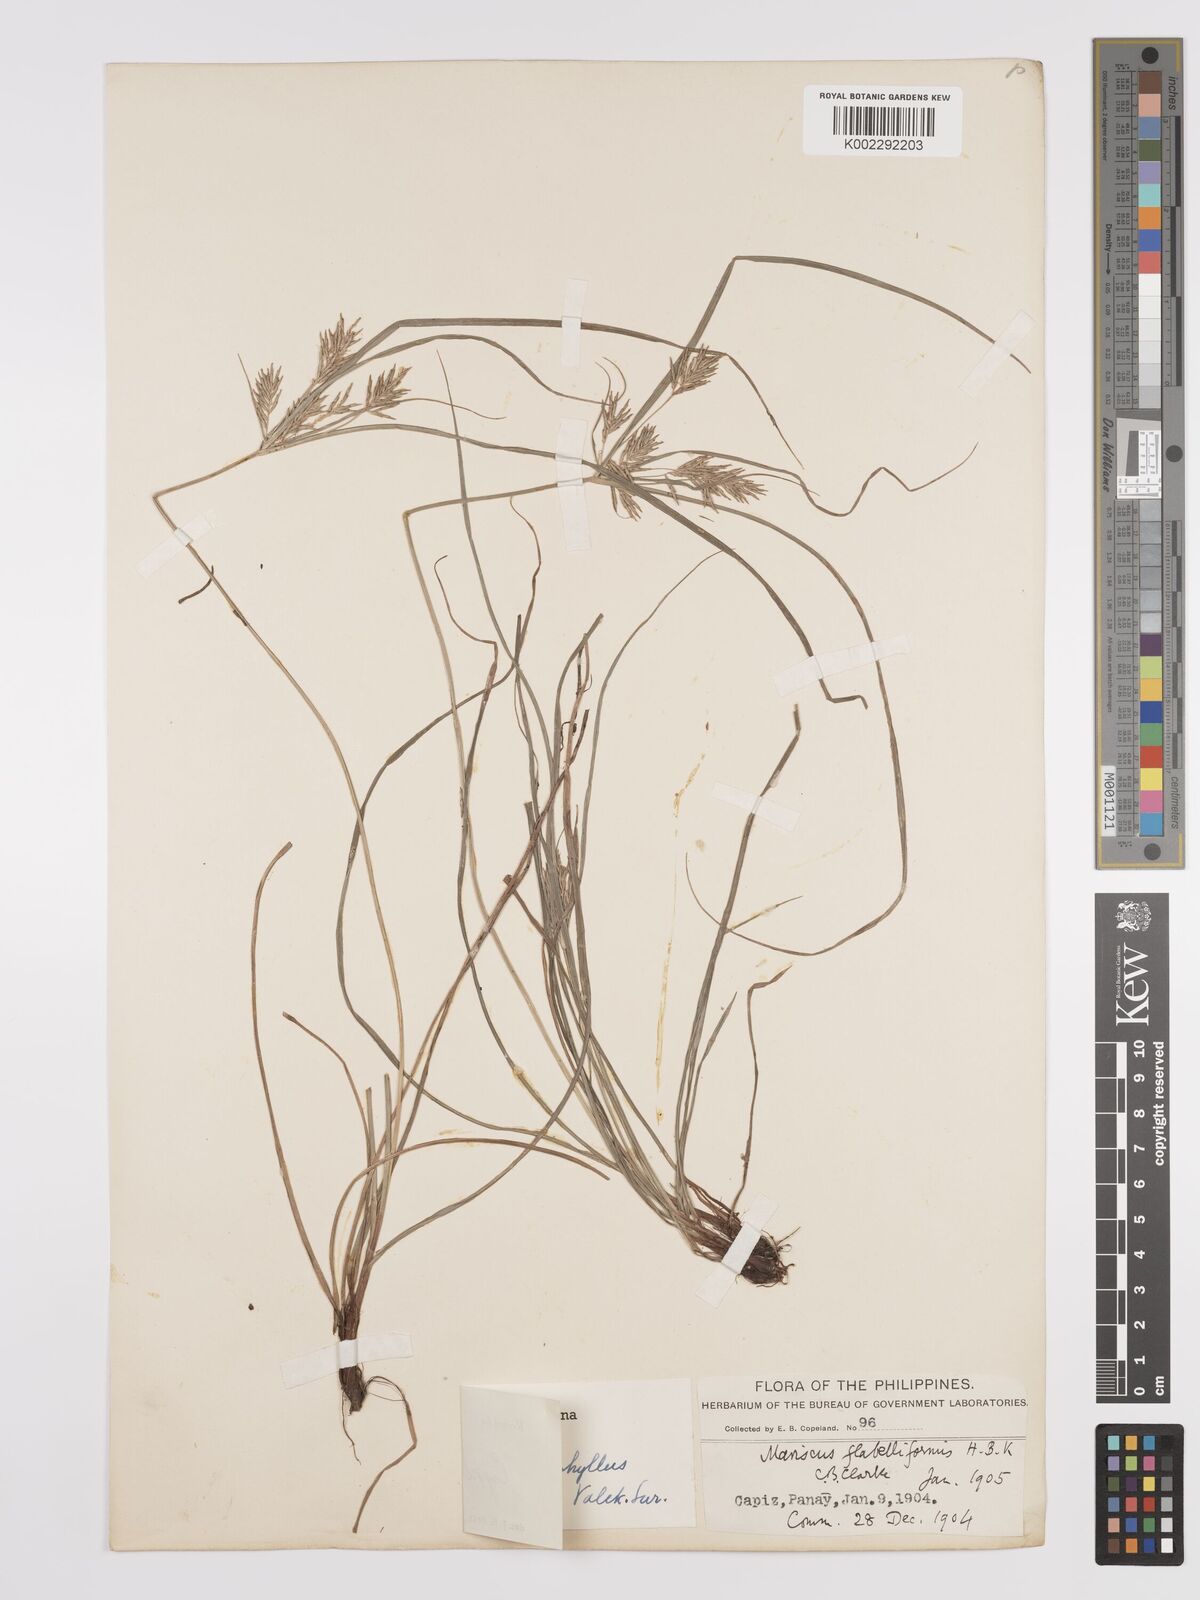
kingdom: Plantae
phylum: Tracheophyta
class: Liliopsida
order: Poales
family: Cyperaceae
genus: Cyperus
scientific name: Cyperus stenophyllus
